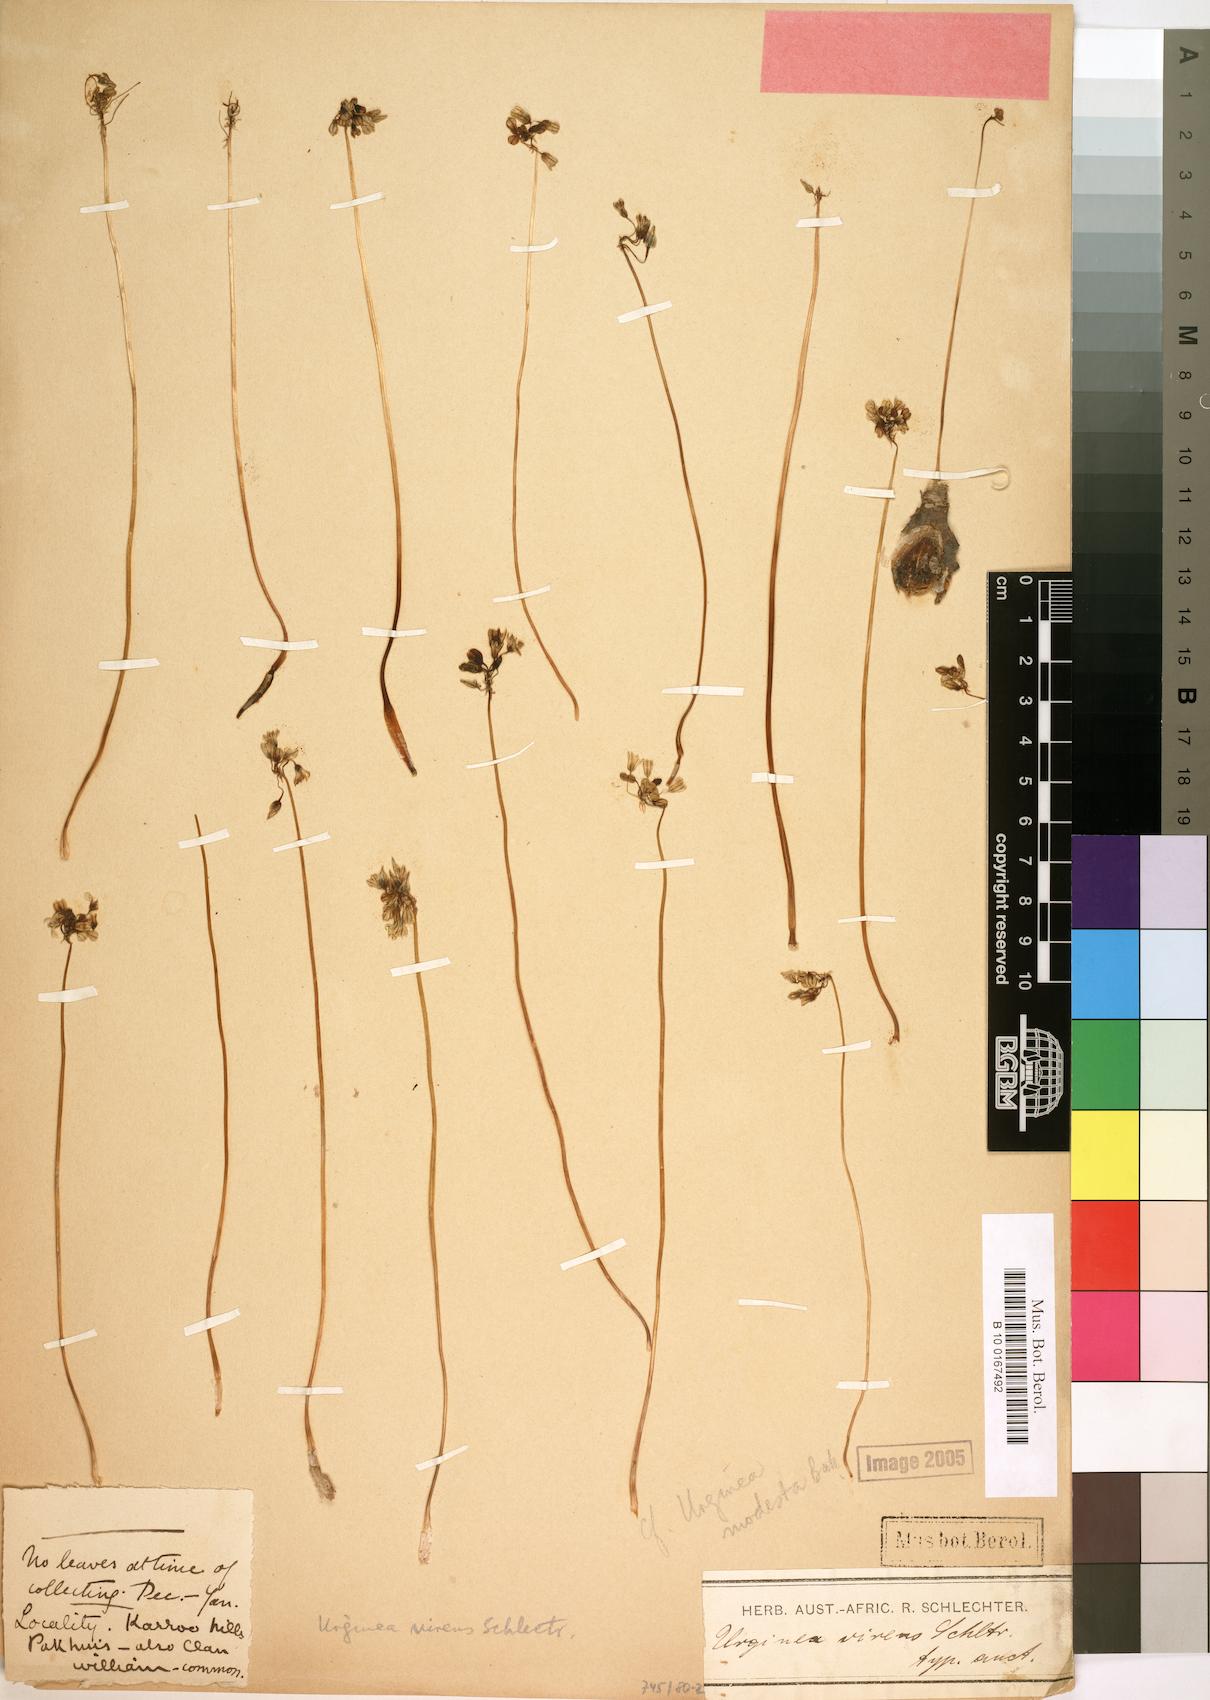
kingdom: Plantae
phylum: Tracheophyta
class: Liliopsida
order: Asparagales
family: Asparagaceae
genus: Austronea
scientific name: Austronea virens
